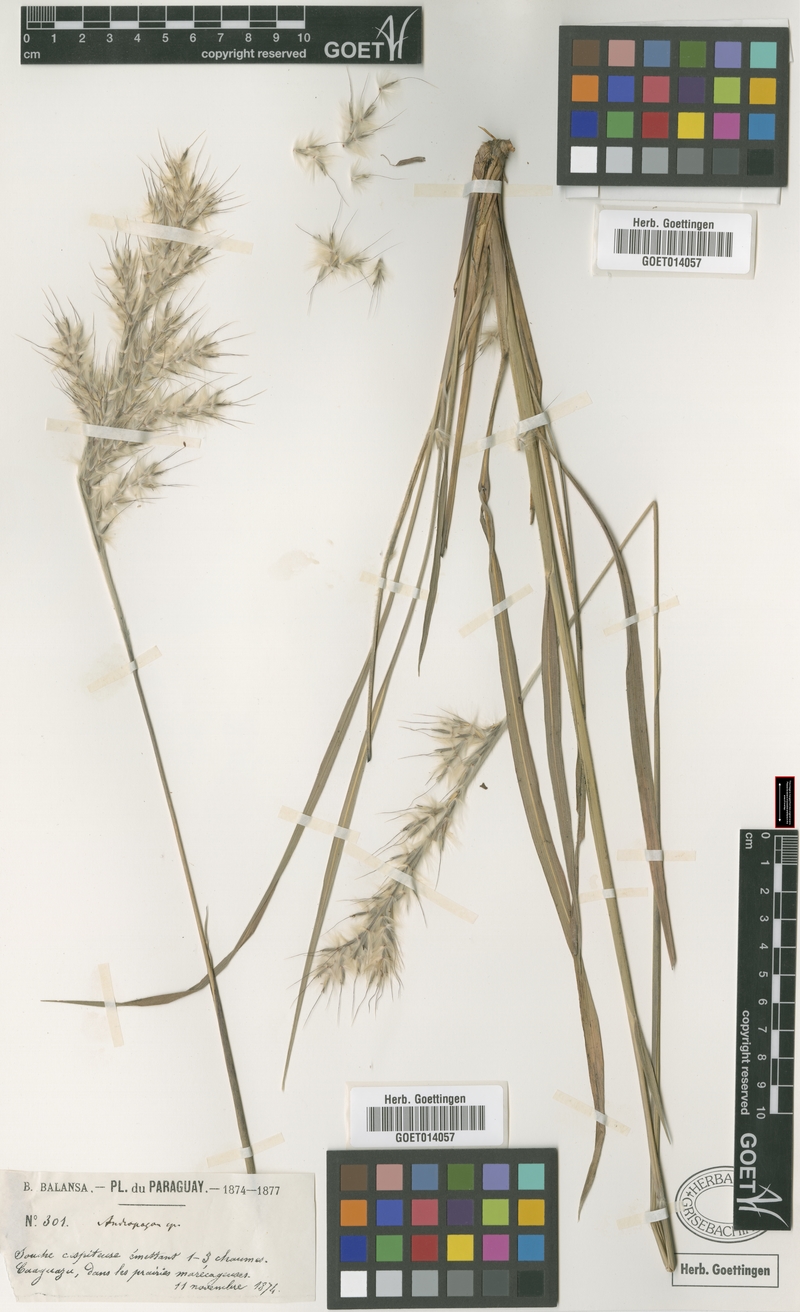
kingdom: Plantae
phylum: Tracheophyta
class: Liliopsida
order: Poales
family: Poaceae
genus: Erianthus
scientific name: Erianthus trinii
